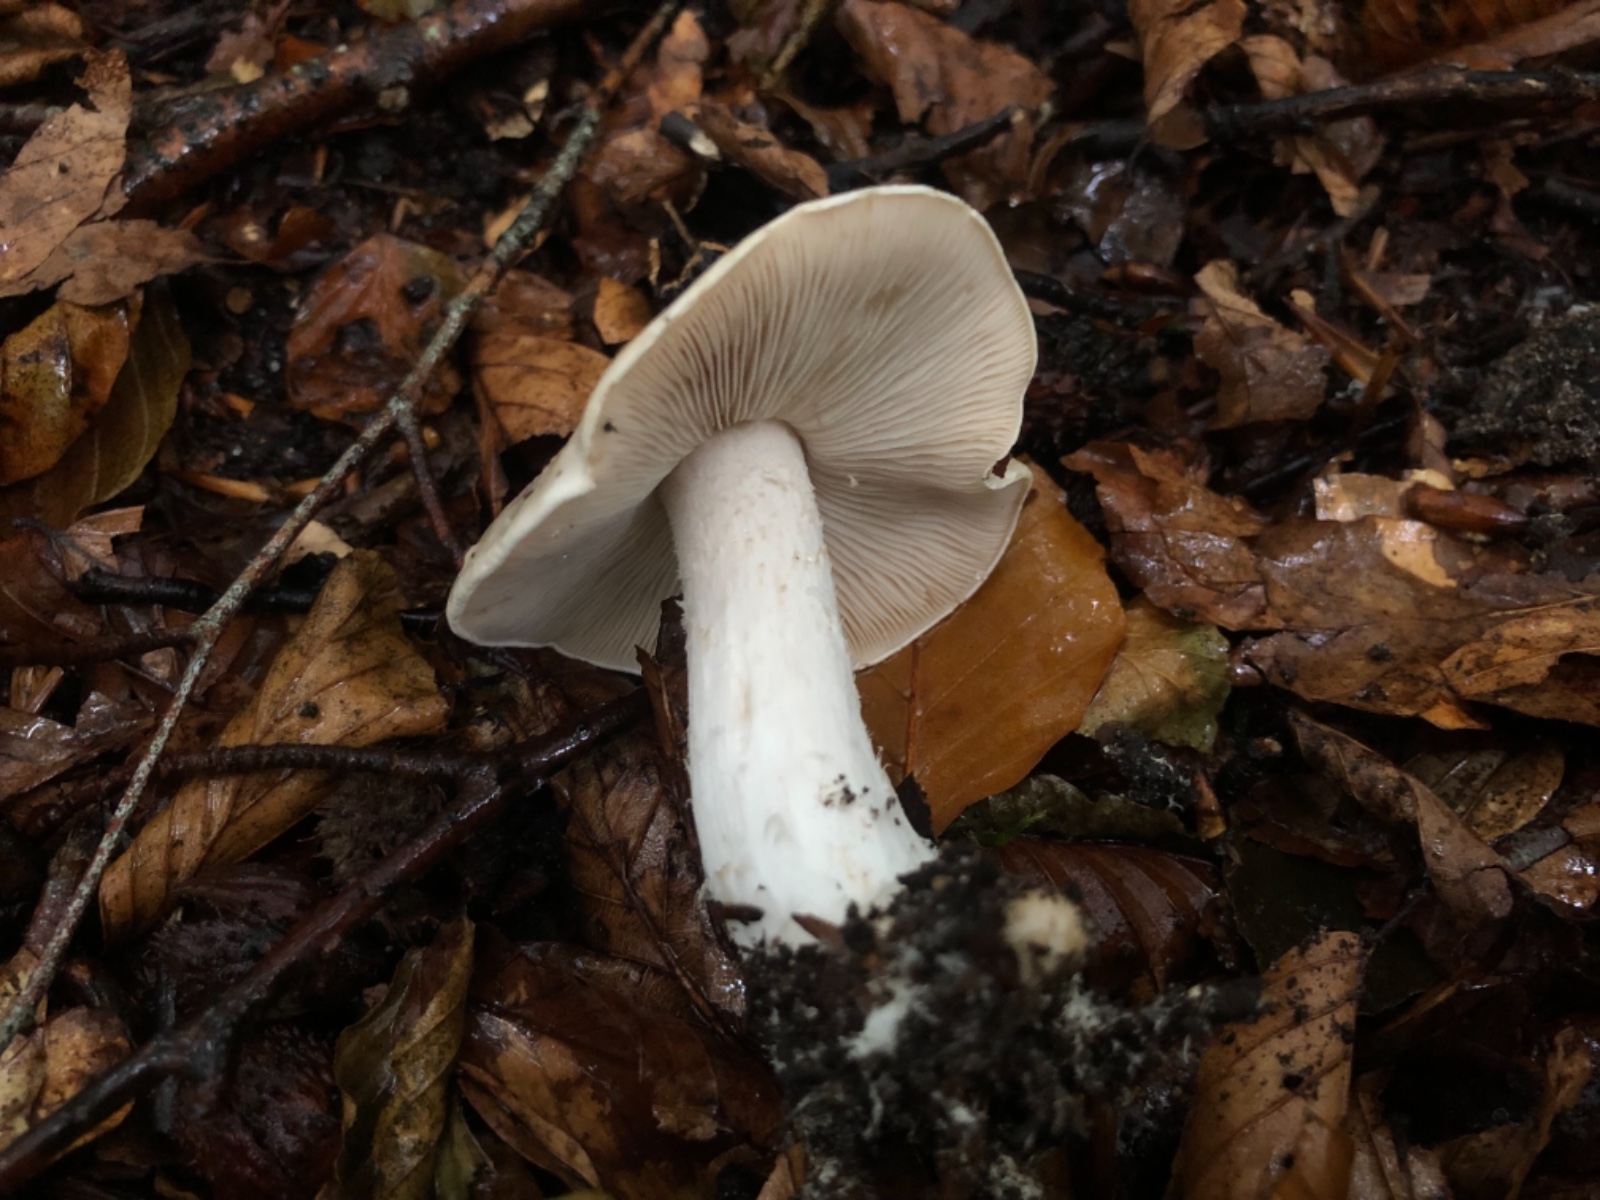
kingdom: Fungi
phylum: Basidiomycota
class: Agaricomycetes
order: Agaricales
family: Hymenogastraceae
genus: Hebeloma
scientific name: Hebeloma sinapizans
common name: ræddike-tåreblad
